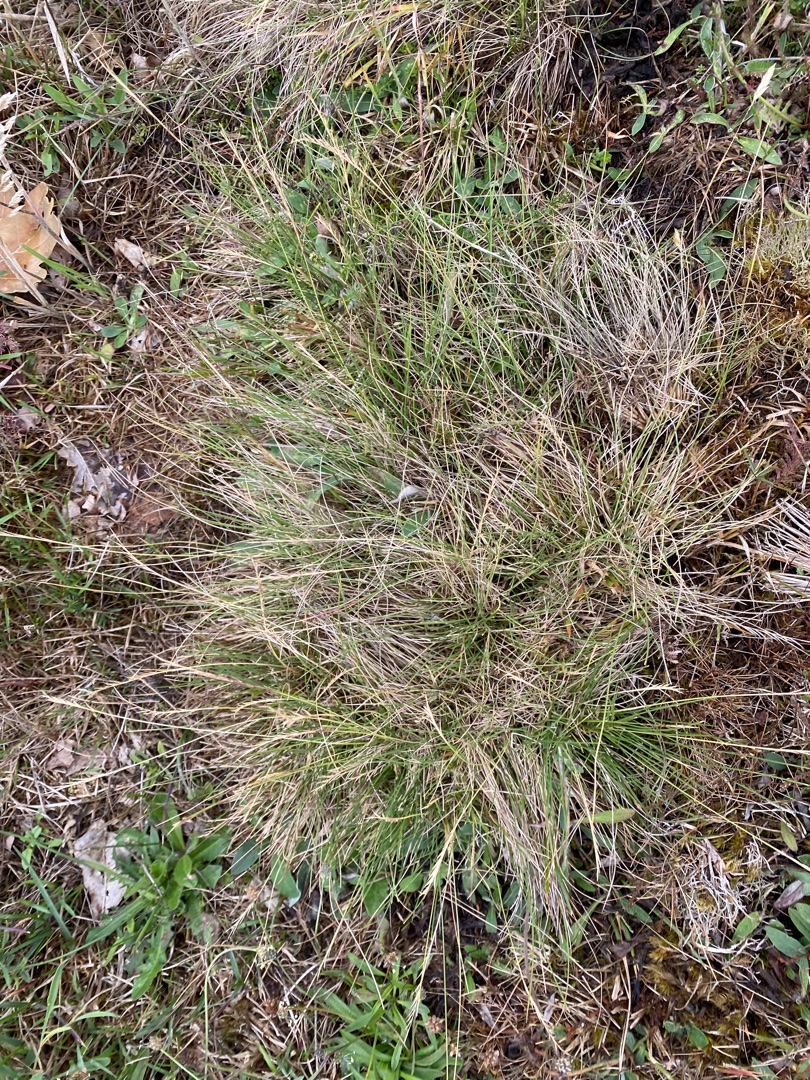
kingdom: Plantae
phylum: Tracheophyta
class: Liliopsida
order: Poales
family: Poaceae
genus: Nardus
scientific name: Nardus stricta
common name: Katteskæg
